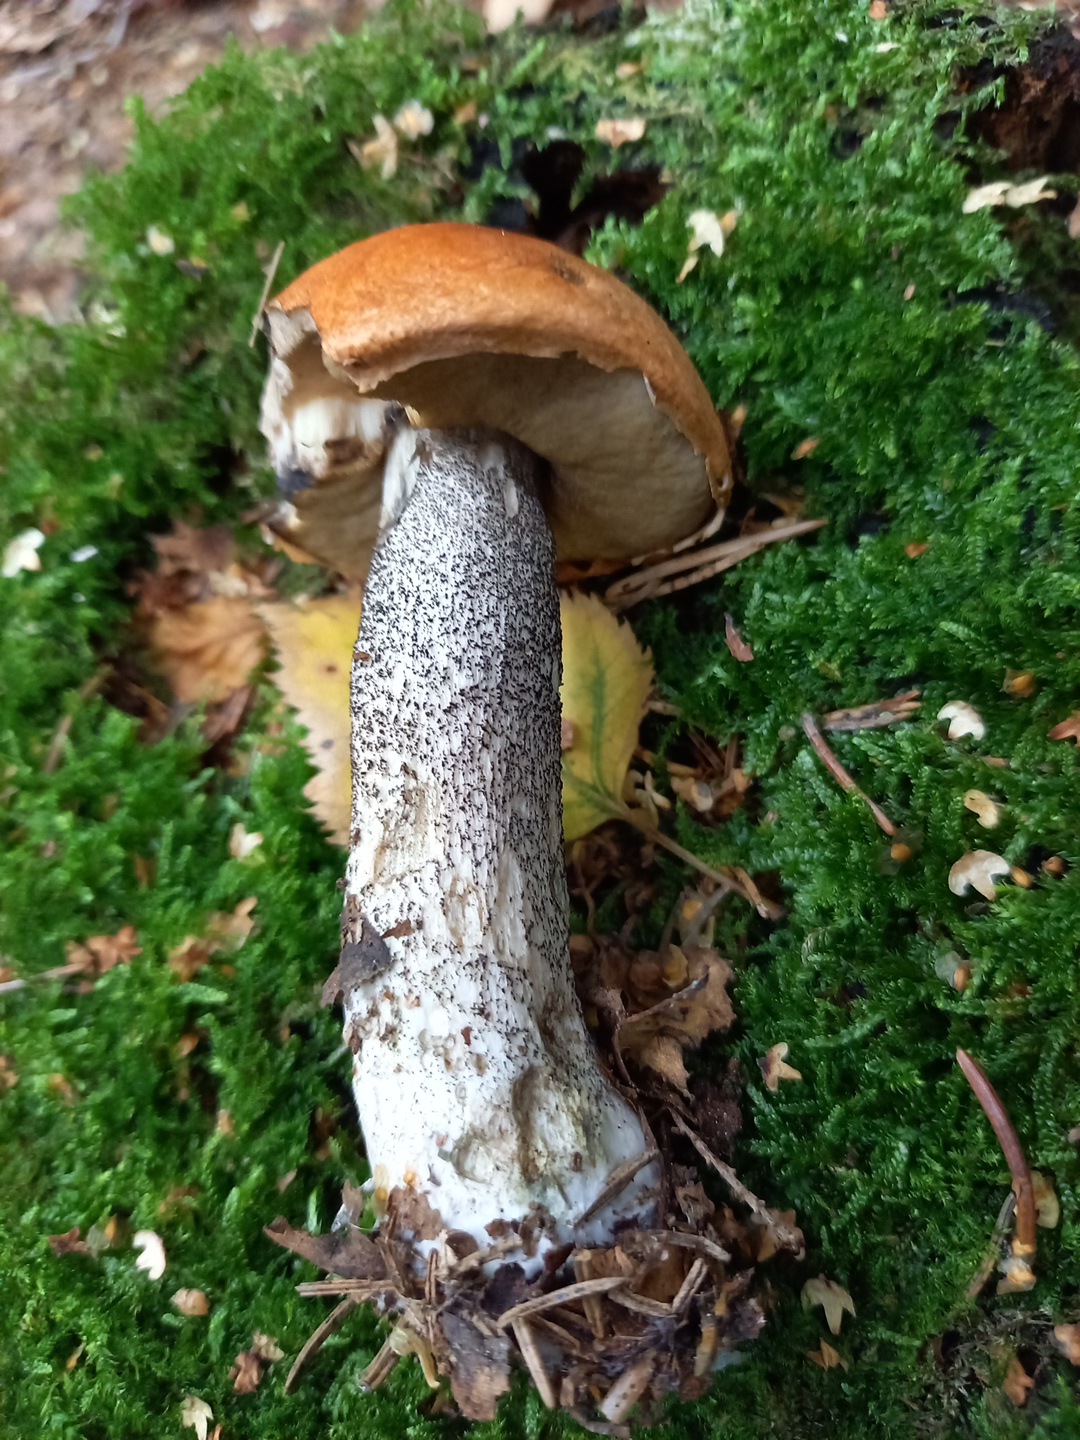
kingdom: Fungi
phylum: Basidiomycota
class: Agaricomycetes
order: Boletales
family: Boletaceae
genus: Leccinum
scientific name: Leccinum versipelle
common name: orange skælrørhat
